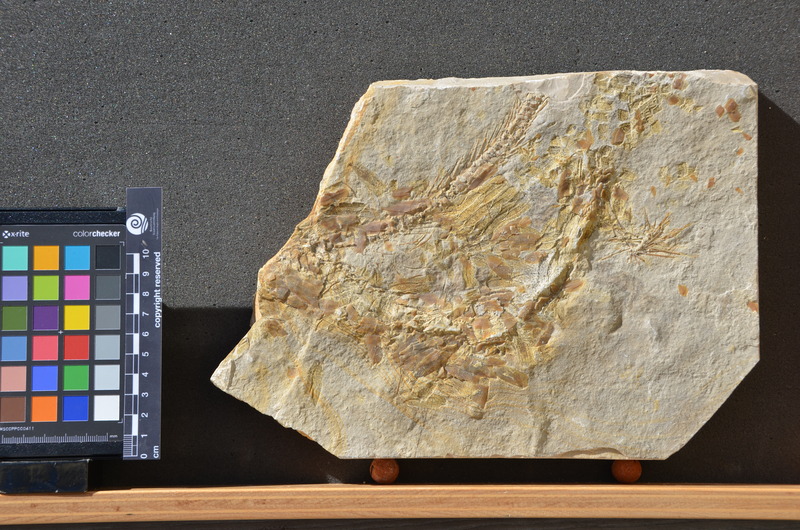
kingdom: Animalia
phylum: Chordata
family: Aspidorhynchidae
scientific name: Aspidorhynchidae
